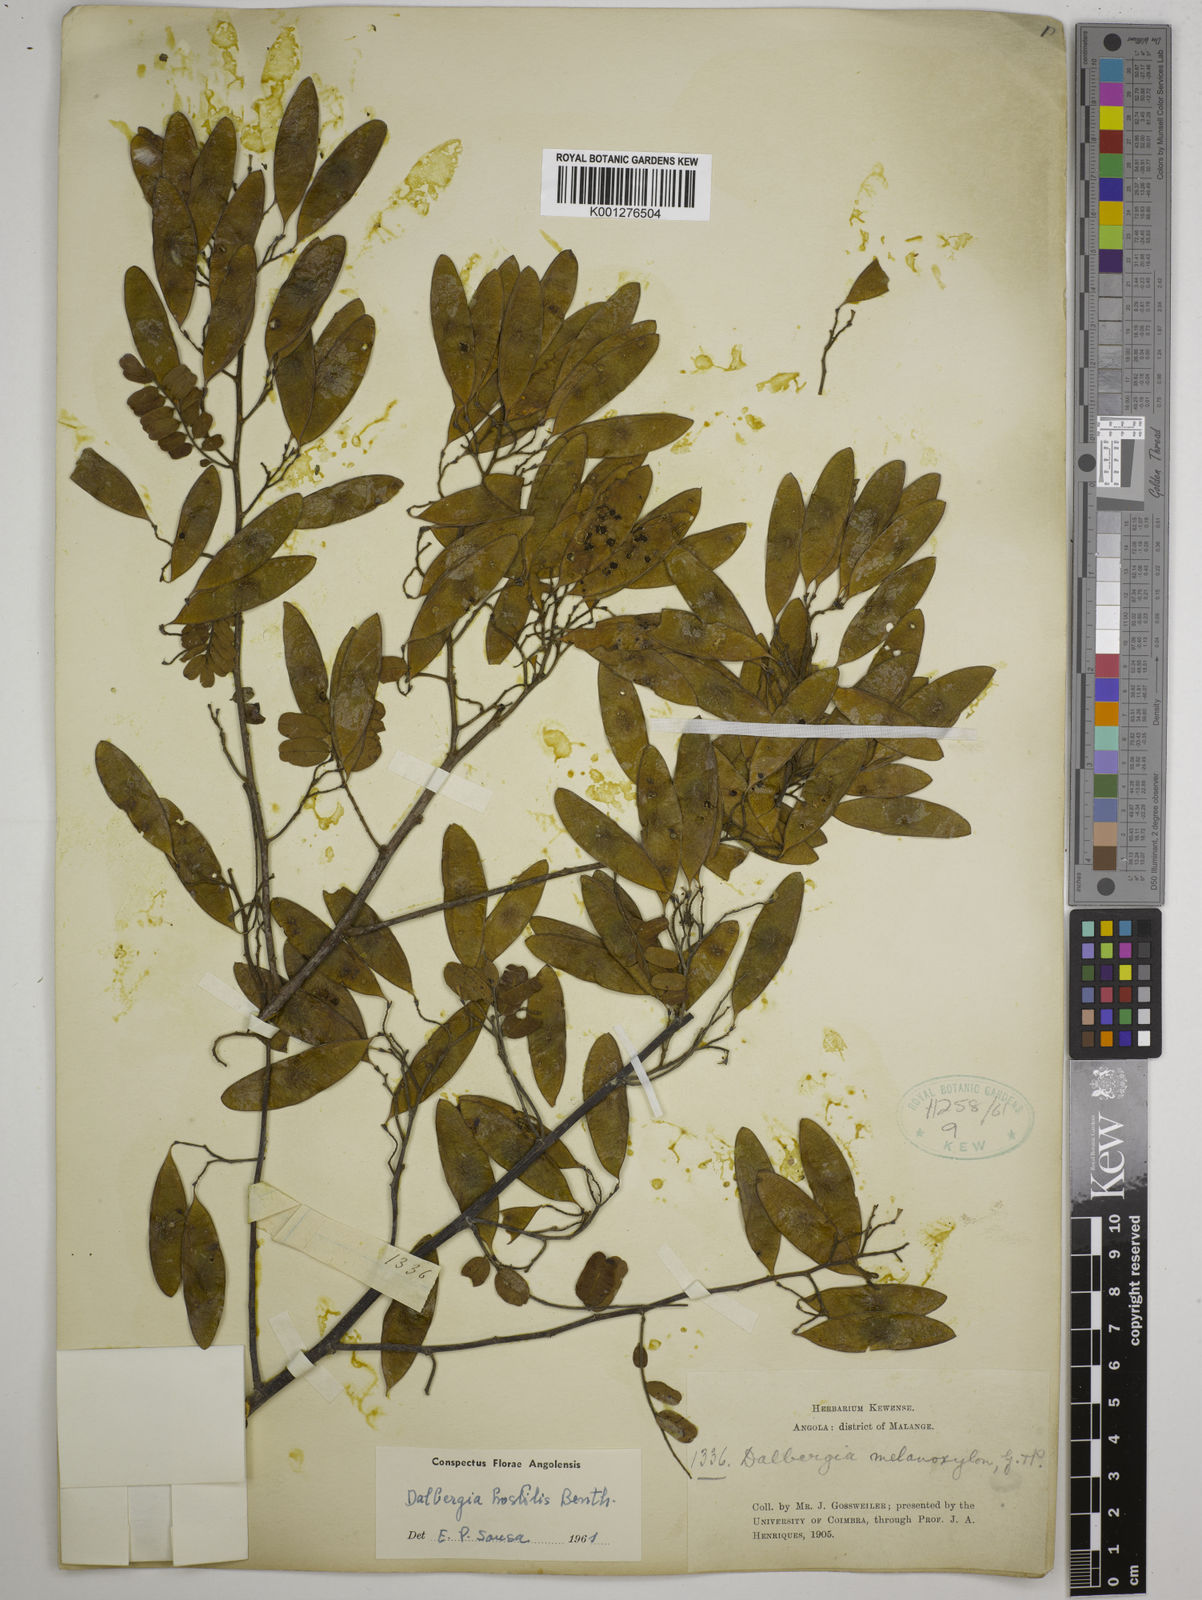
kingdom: Plantae
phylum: Tracheophyta
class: Magnoliopsida
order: Fabales
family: Fabaceae
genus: Dalbergia
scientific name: Dalbergia hostilis
